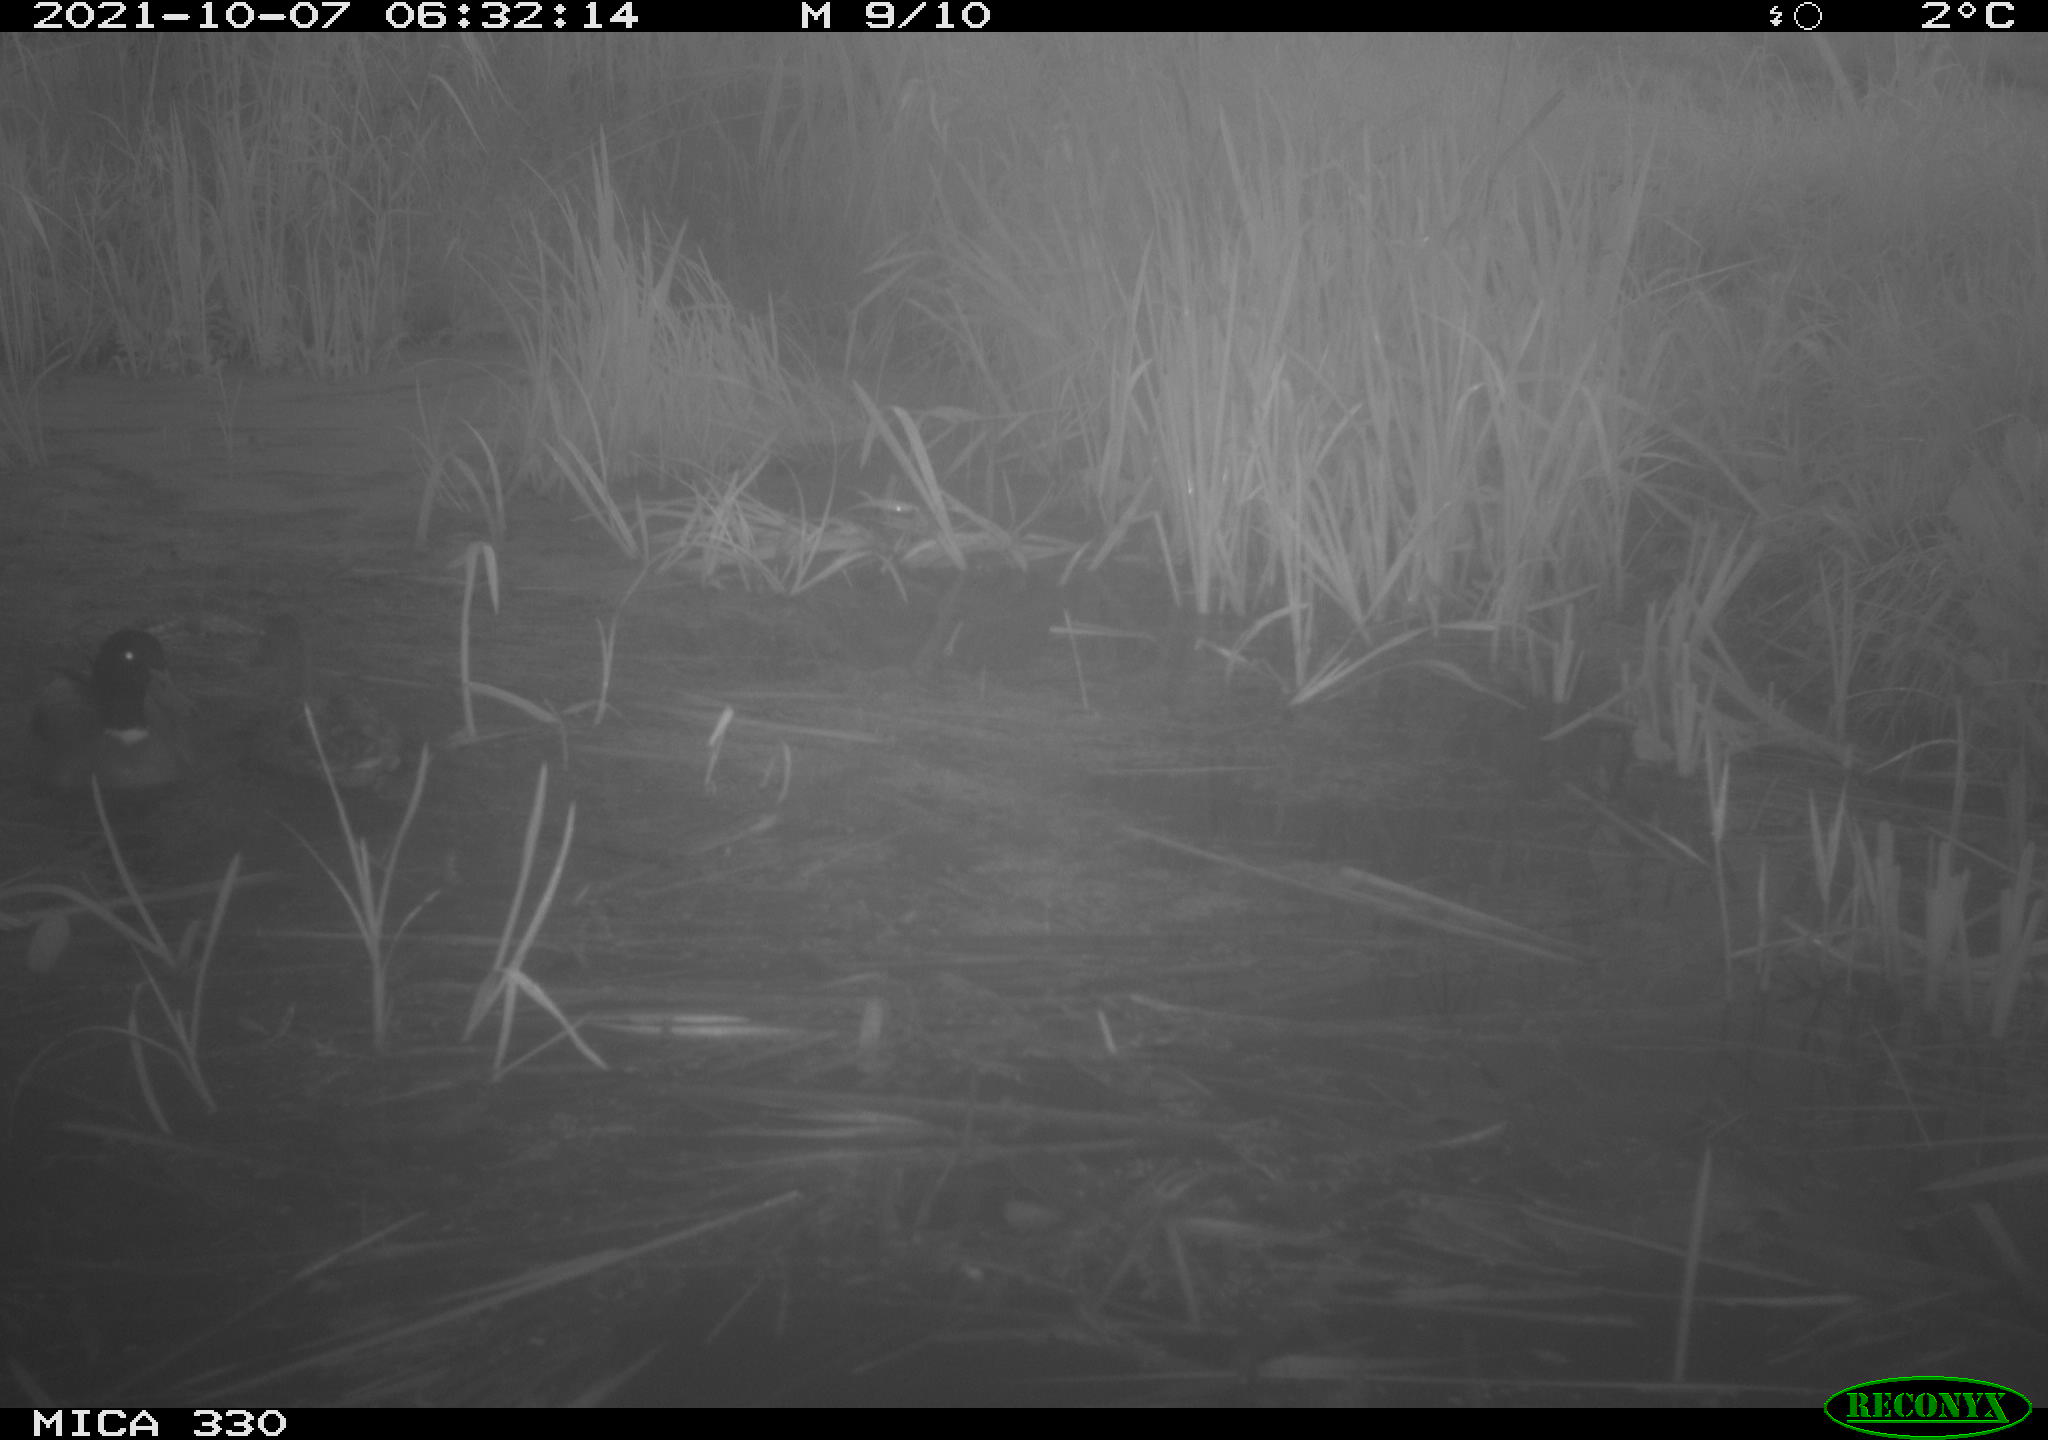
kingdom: Animalia
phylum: Chordata
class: Aves
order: Anseriformes
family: Anatidae
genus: Anas
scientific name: Anas platyrhynchos
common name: Mallard
